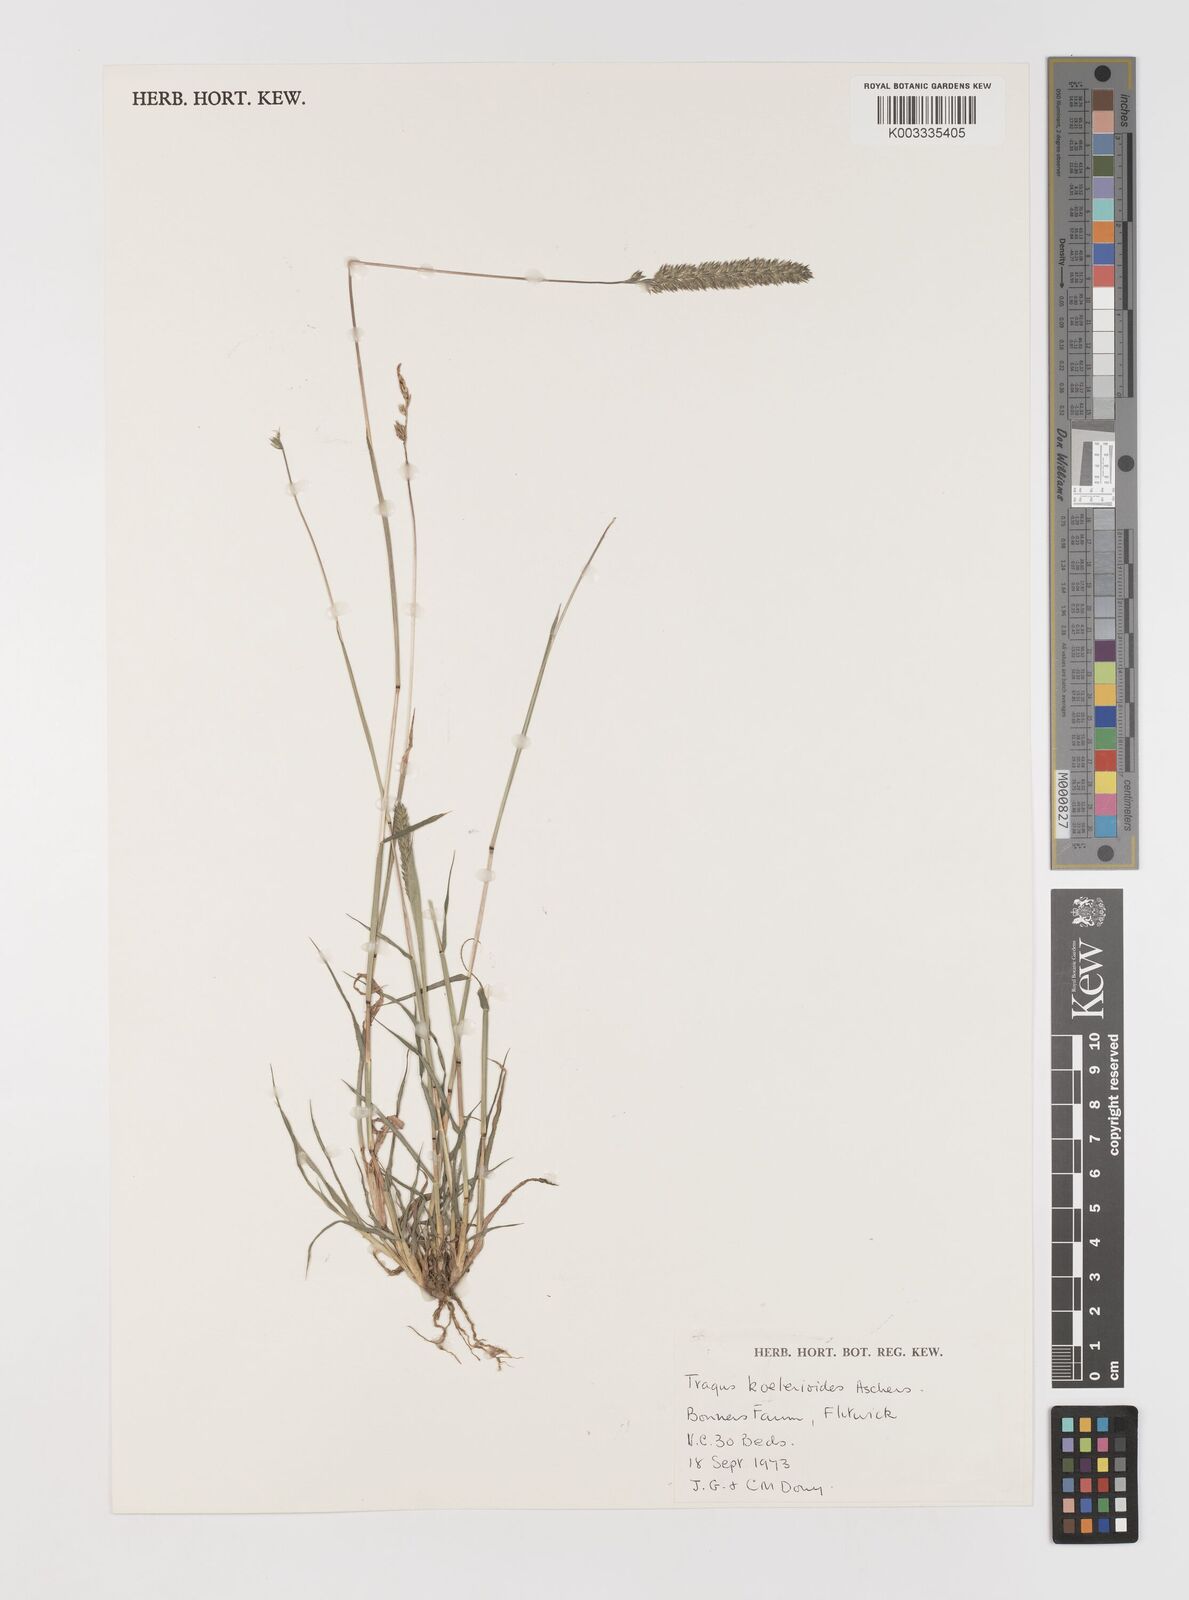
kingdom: Plantae
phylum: Tracheophyta
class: Liliopsida
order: Poales
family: Poaceae
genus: Tragus
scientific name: Tragus koelerioides
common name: Creeping carrot-seed grass
